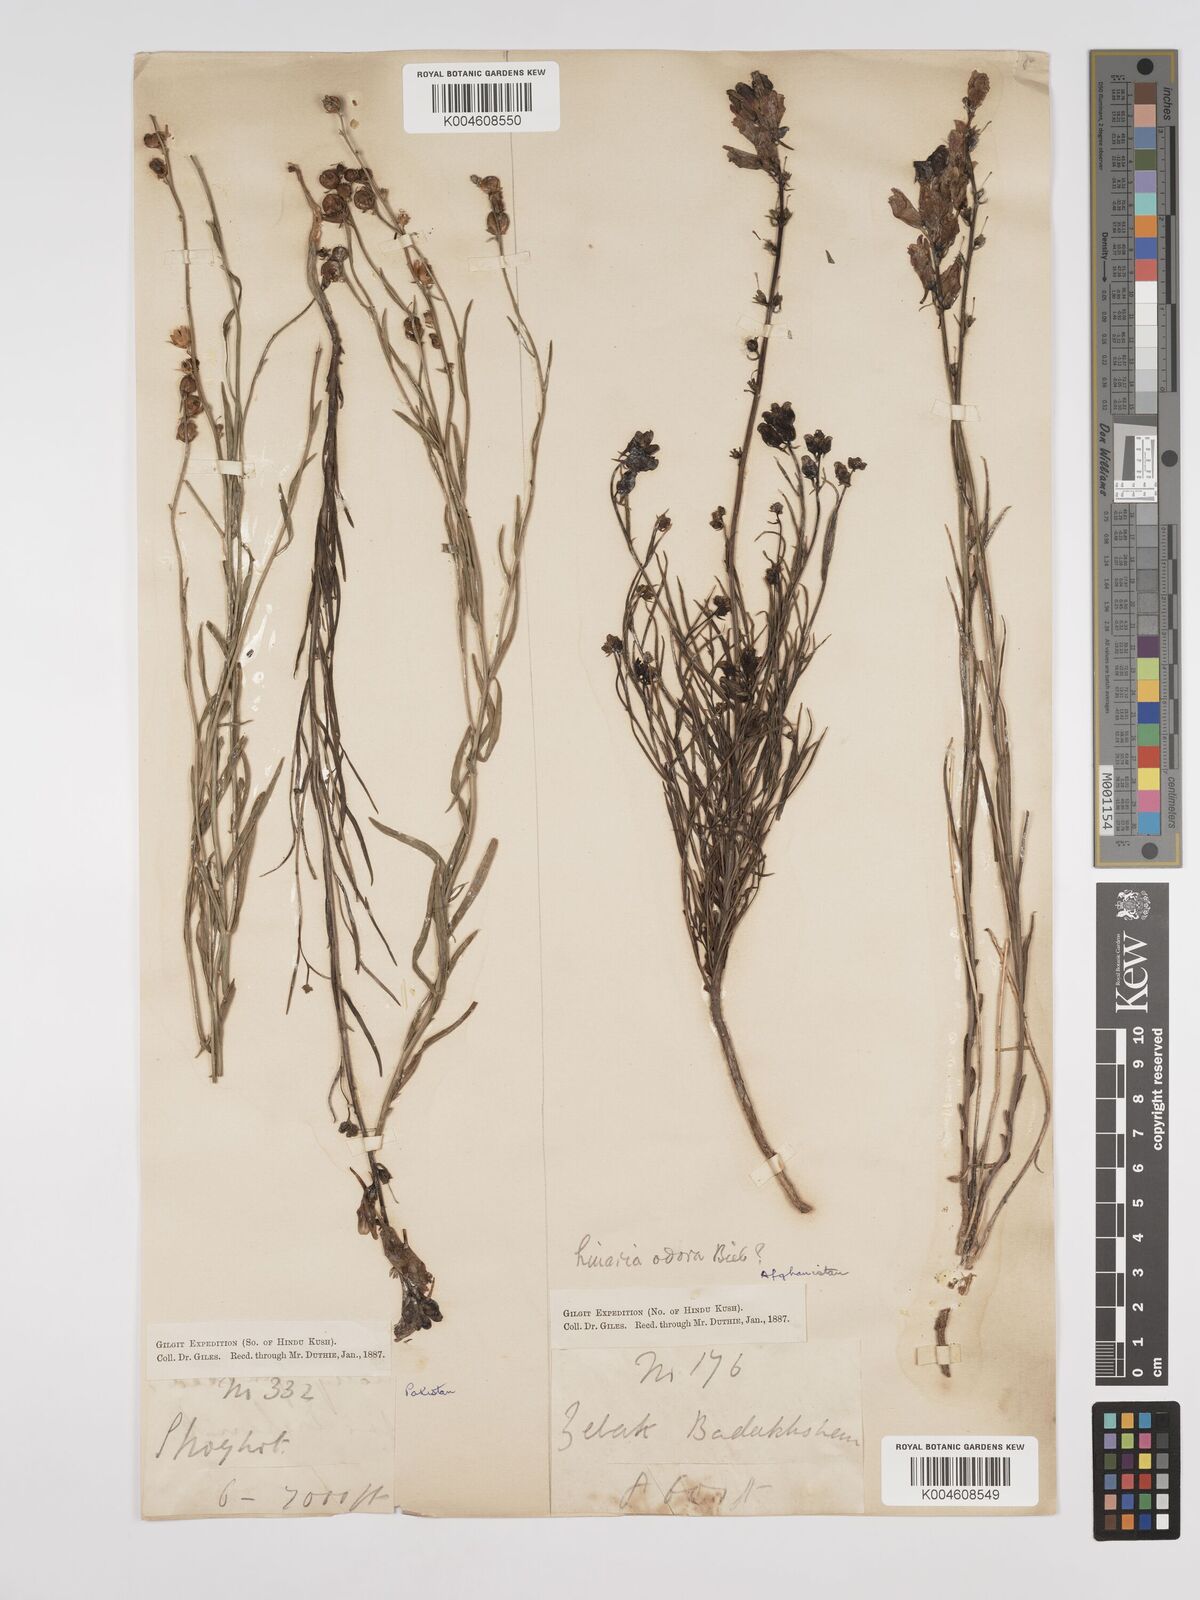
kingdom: Plantae
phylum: Tracheophyta
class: Magnoliopsida
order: Lamiales
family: Plantaginaceae
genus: Kickxia
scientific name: Kickxia
